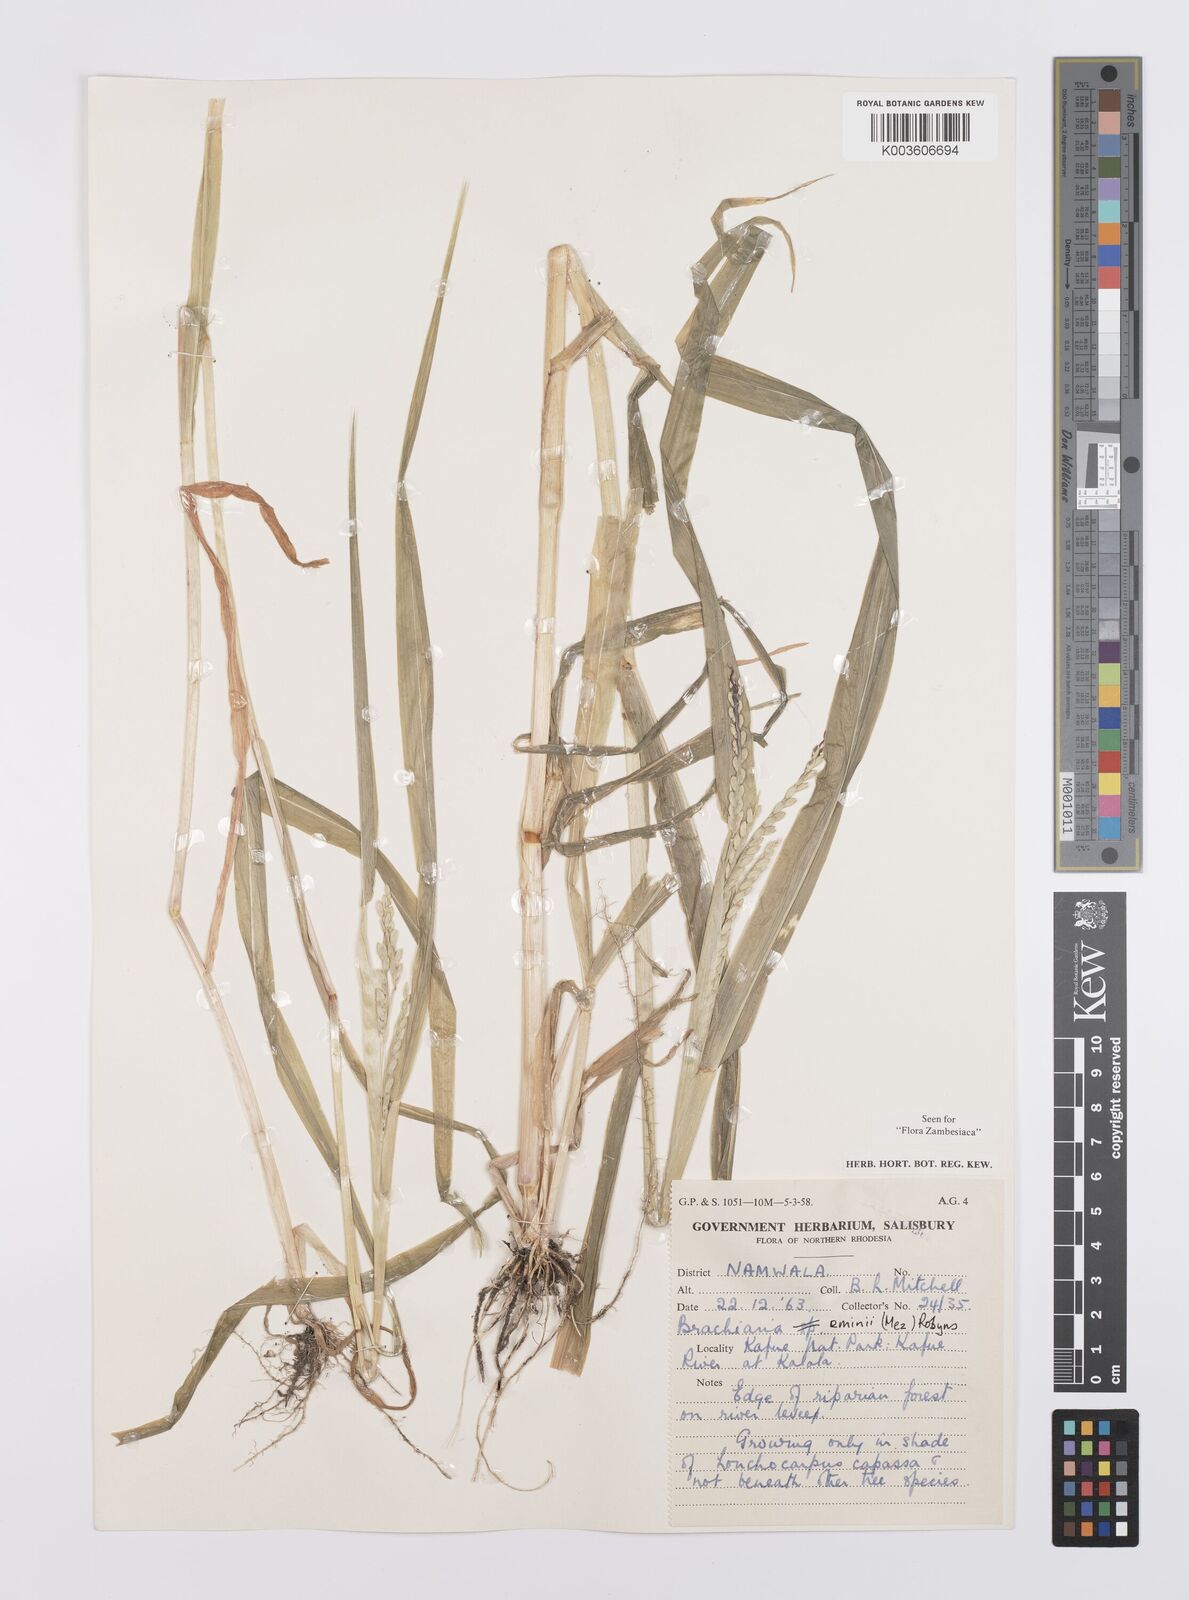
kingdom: Plantae
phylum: Tracheophyta
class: Liliopsida
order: Poales
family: Poaceae
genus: Urochloa
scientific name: Urochloa eminii
